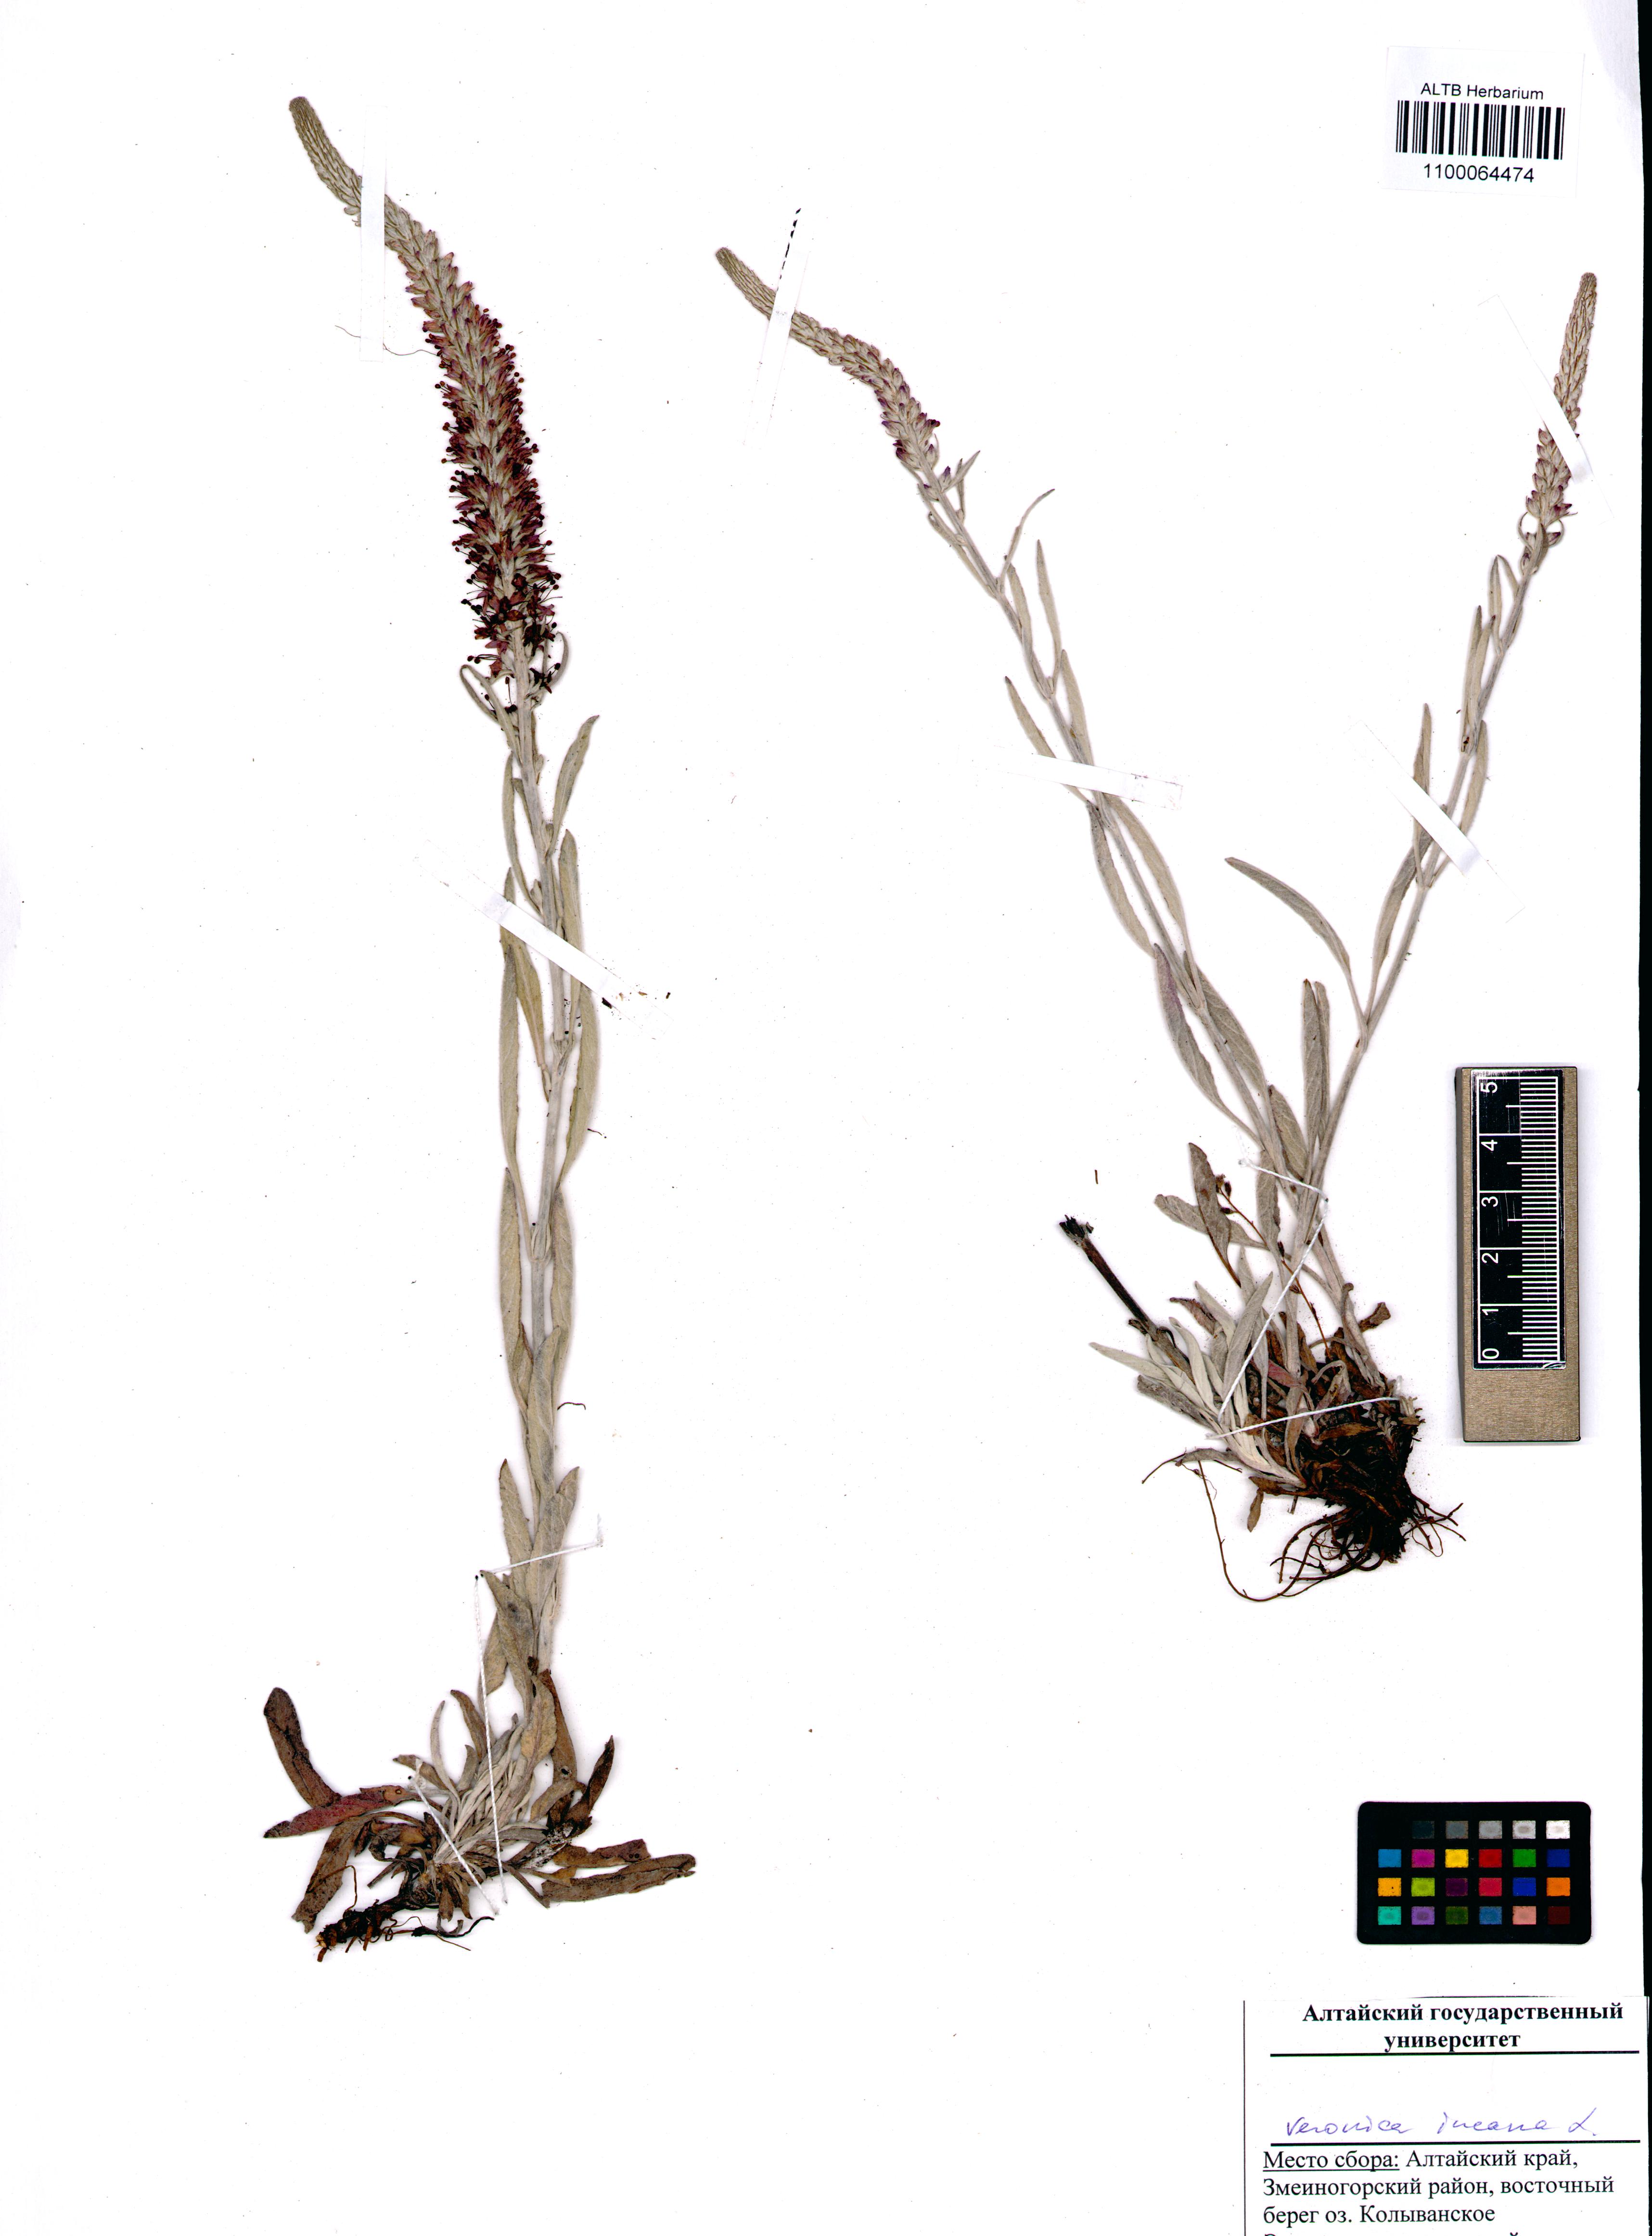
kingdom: Plantae
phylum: Tracheophyta
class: Magnoliopsida
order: Lamiales
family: Plantaginaceae
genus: Veronica
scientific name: Veronica incana
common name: Silver speedwell
